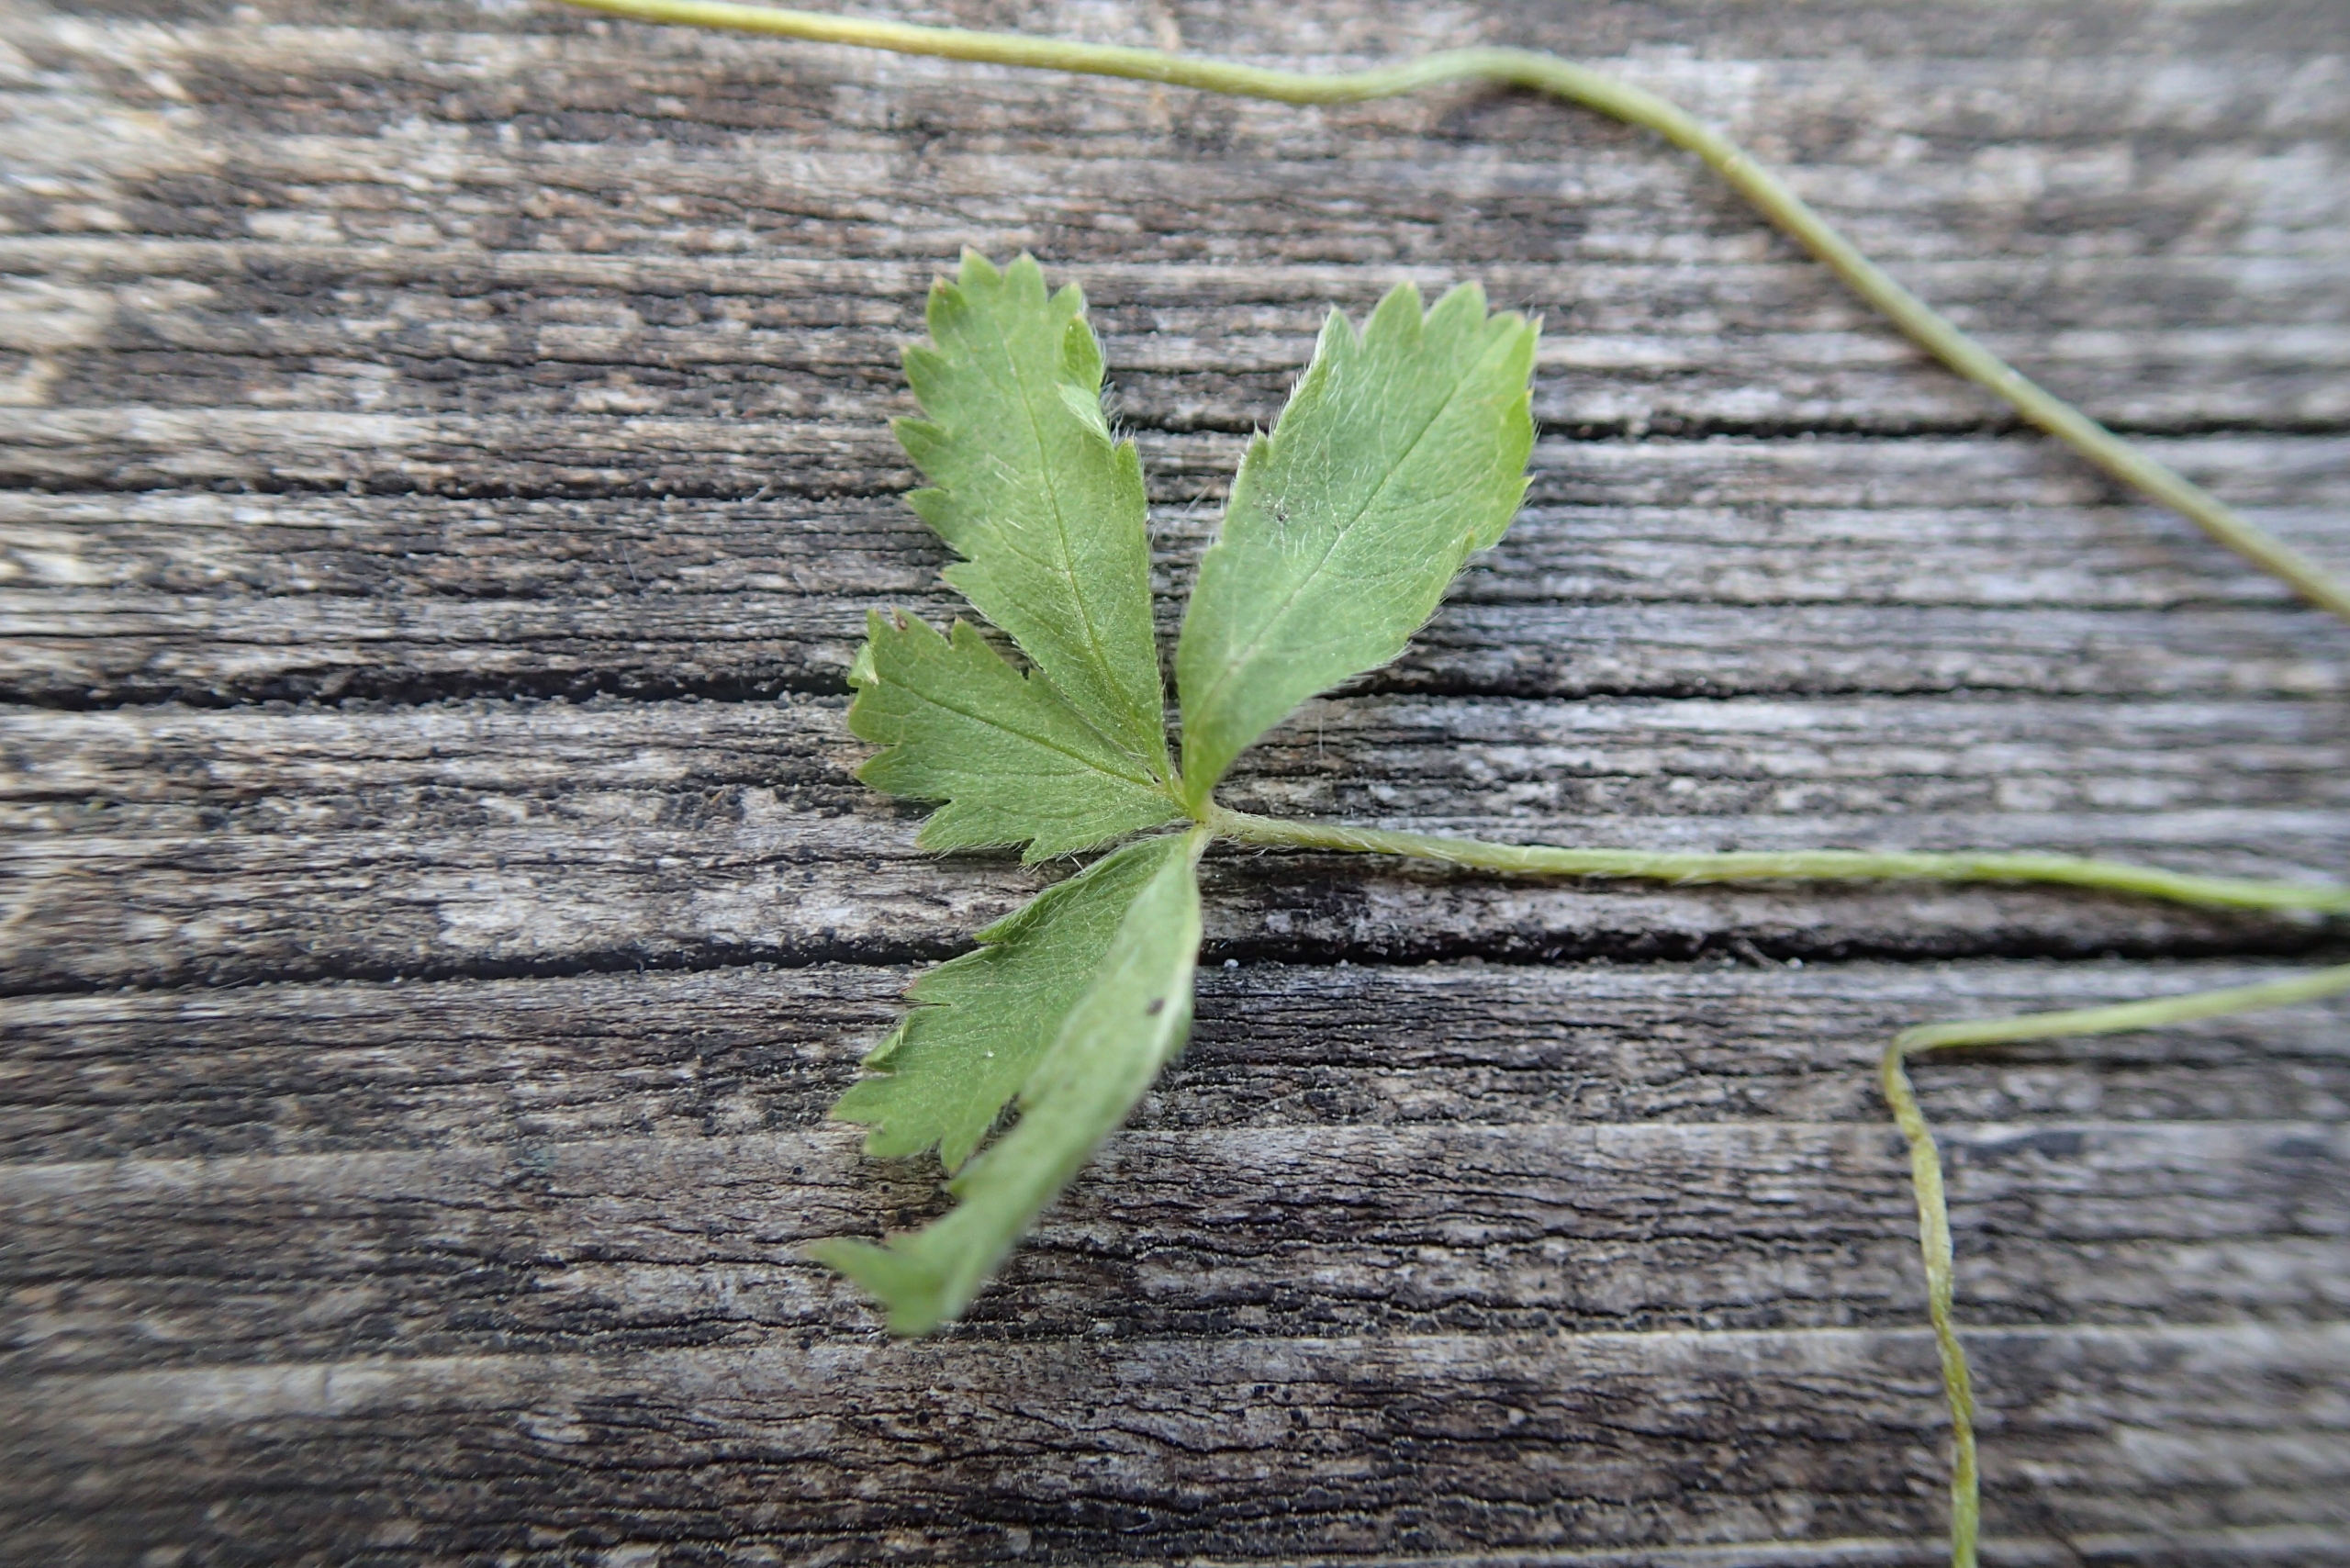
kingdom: Plantae
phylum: Tracheophyta
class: Magnoliopsida
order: Rosales
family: Rosaceae
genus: Potentilla
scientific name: Potentilla reptans
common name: Krybende potentil
